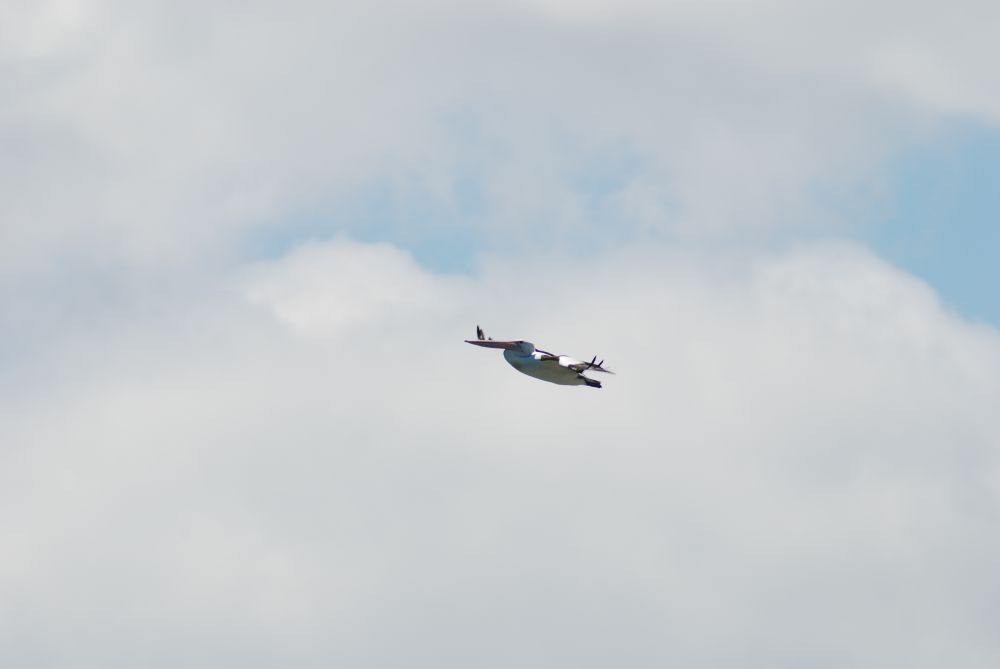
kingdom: Animalia
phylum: Chordata
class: Aves
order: Pelecaniformes
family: Pelecanidae
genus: Pelecanus
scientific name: Pelecanus conspicillatus
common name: Australian pelican
